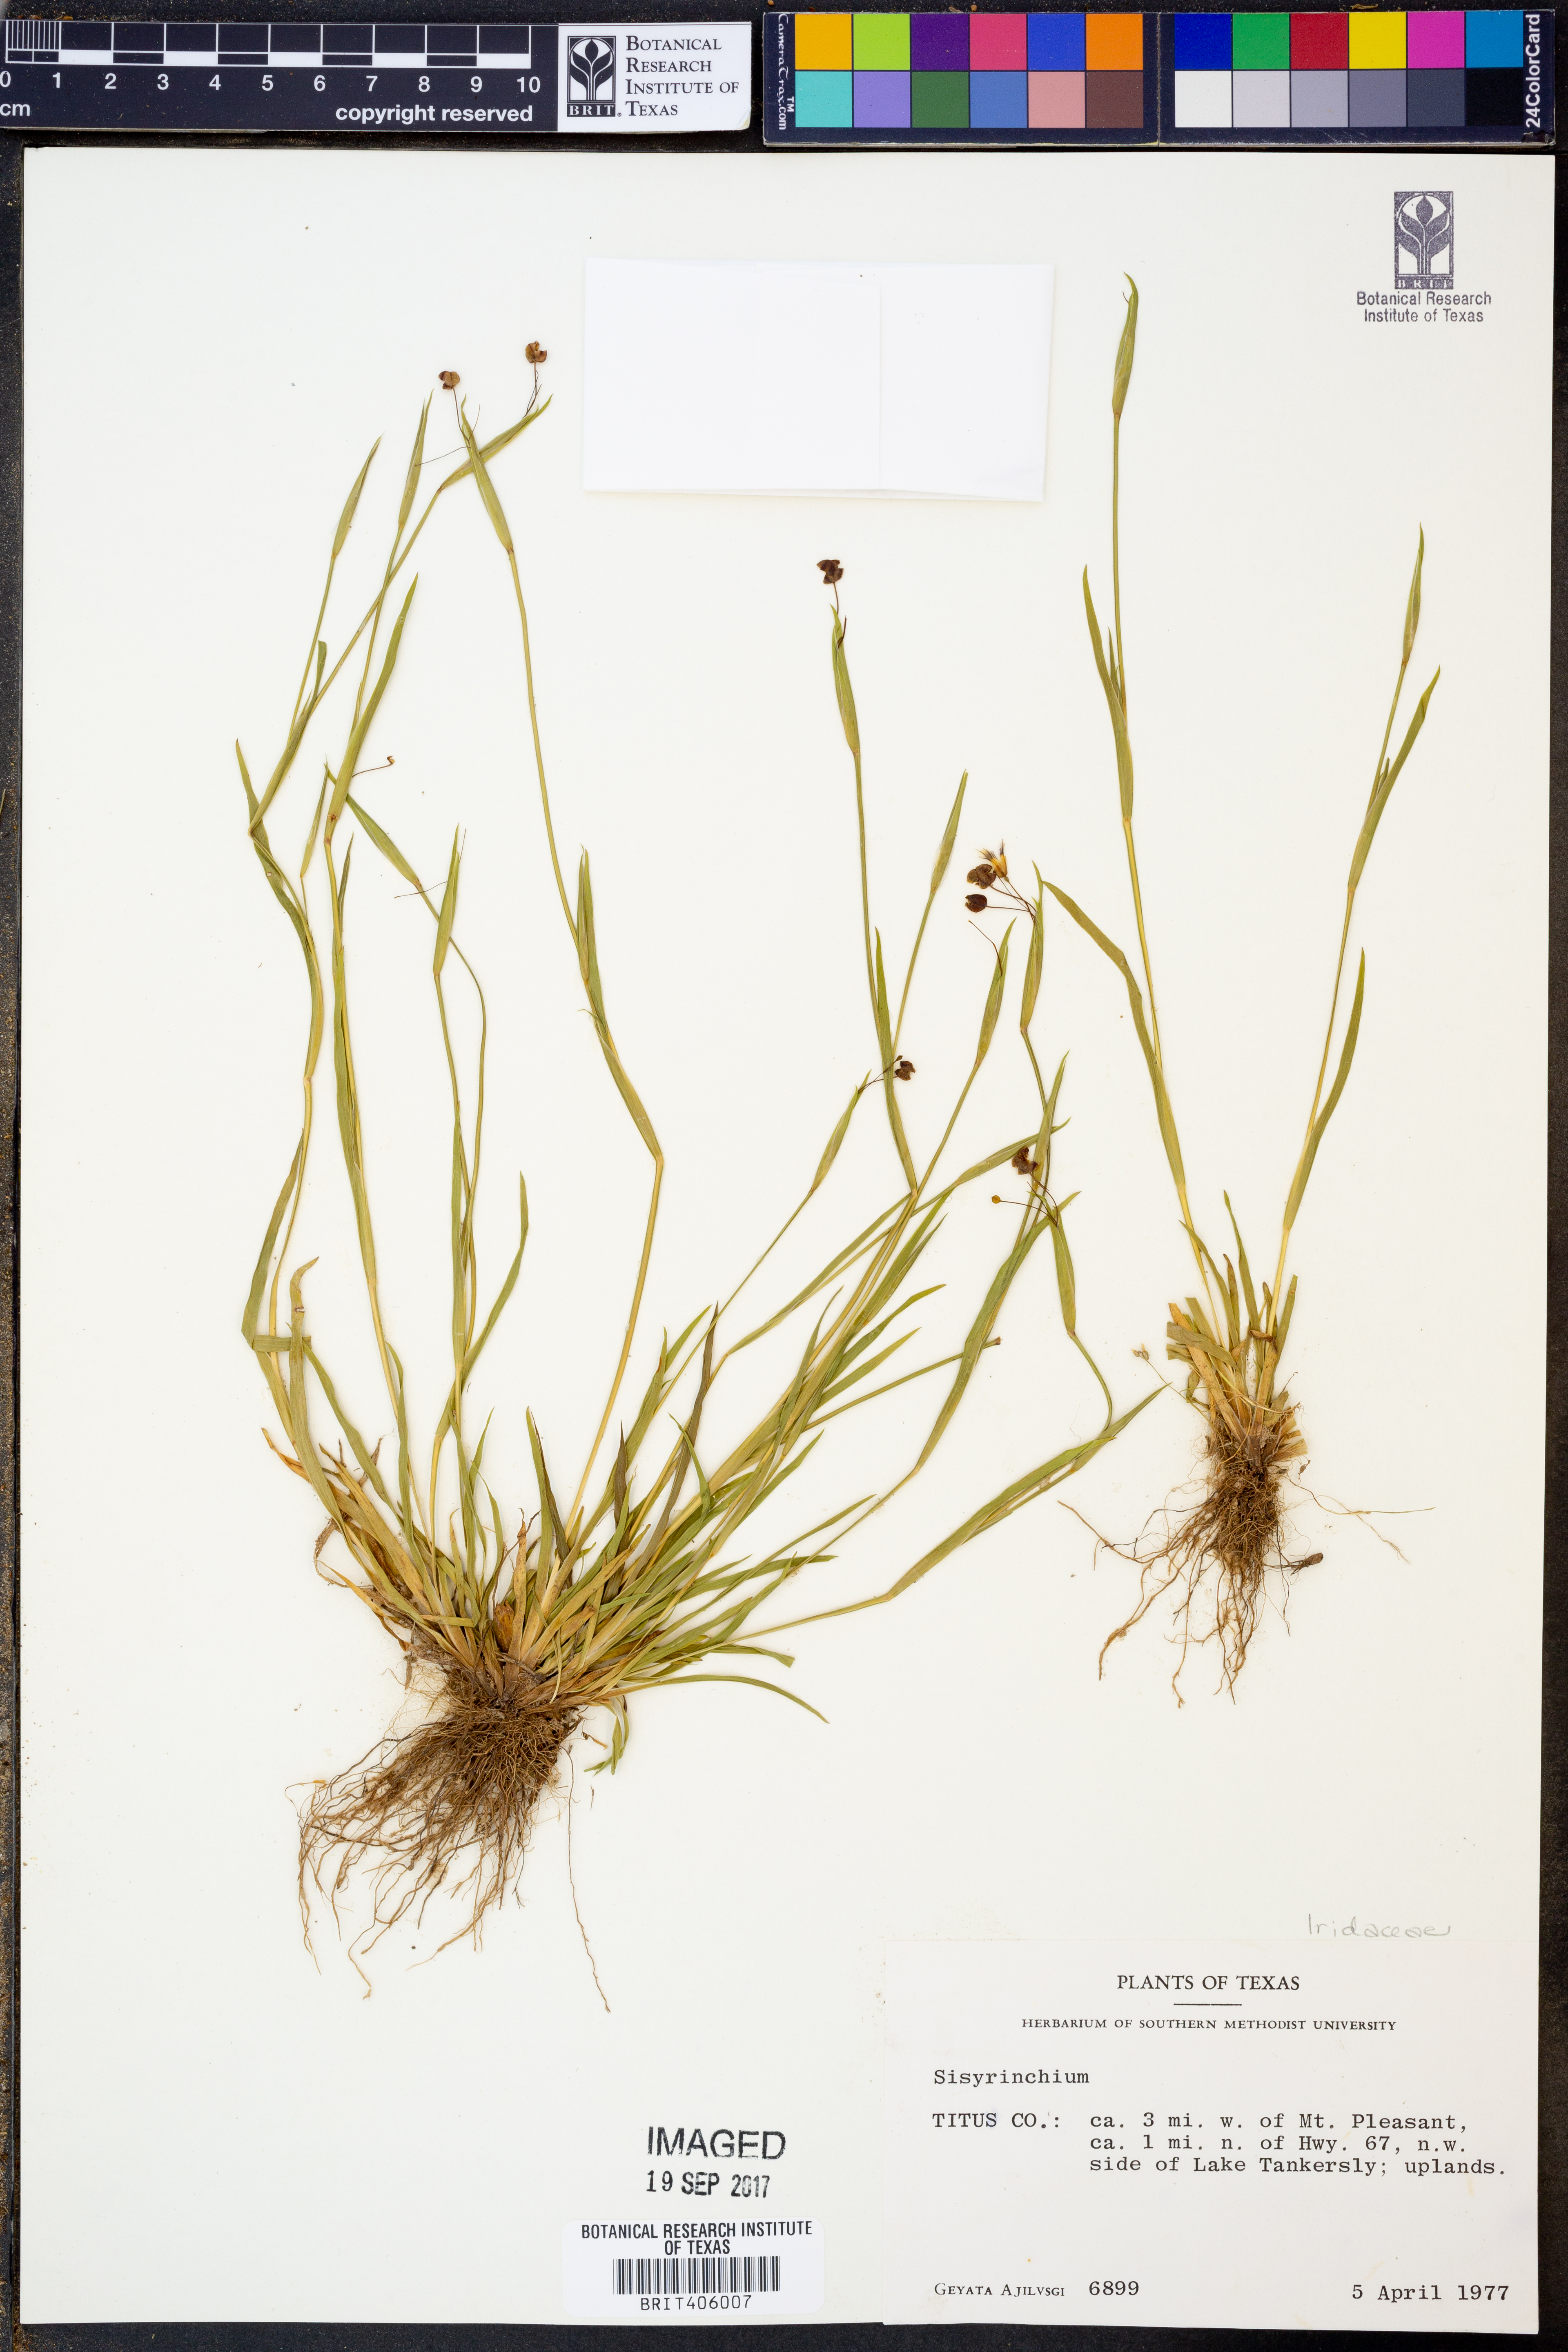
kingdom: Plantae
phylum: Tracheophyta
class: Liliopsida
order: Asparagales
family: Iridaceae
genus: Sisyrinchium
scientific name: Sisyrinchium
